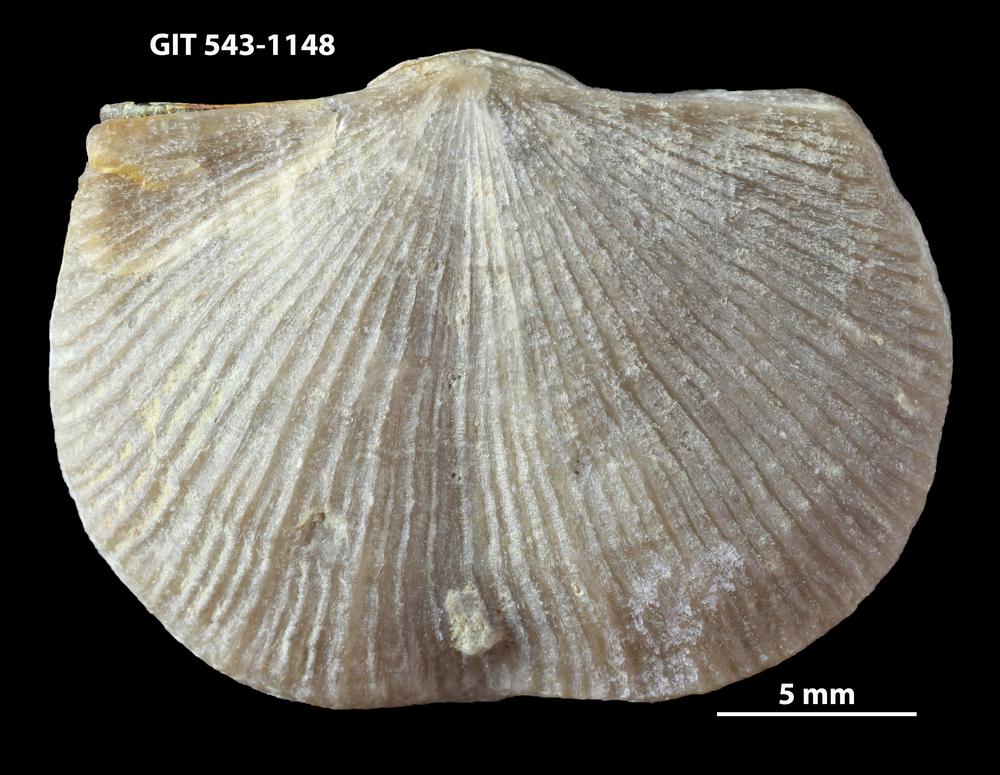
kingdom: Animalia
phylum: Brachiopoda
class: Rhynchonellata
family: Clitambonitidae
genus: Vellamo
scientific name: Vellamo wesenbergiensis
